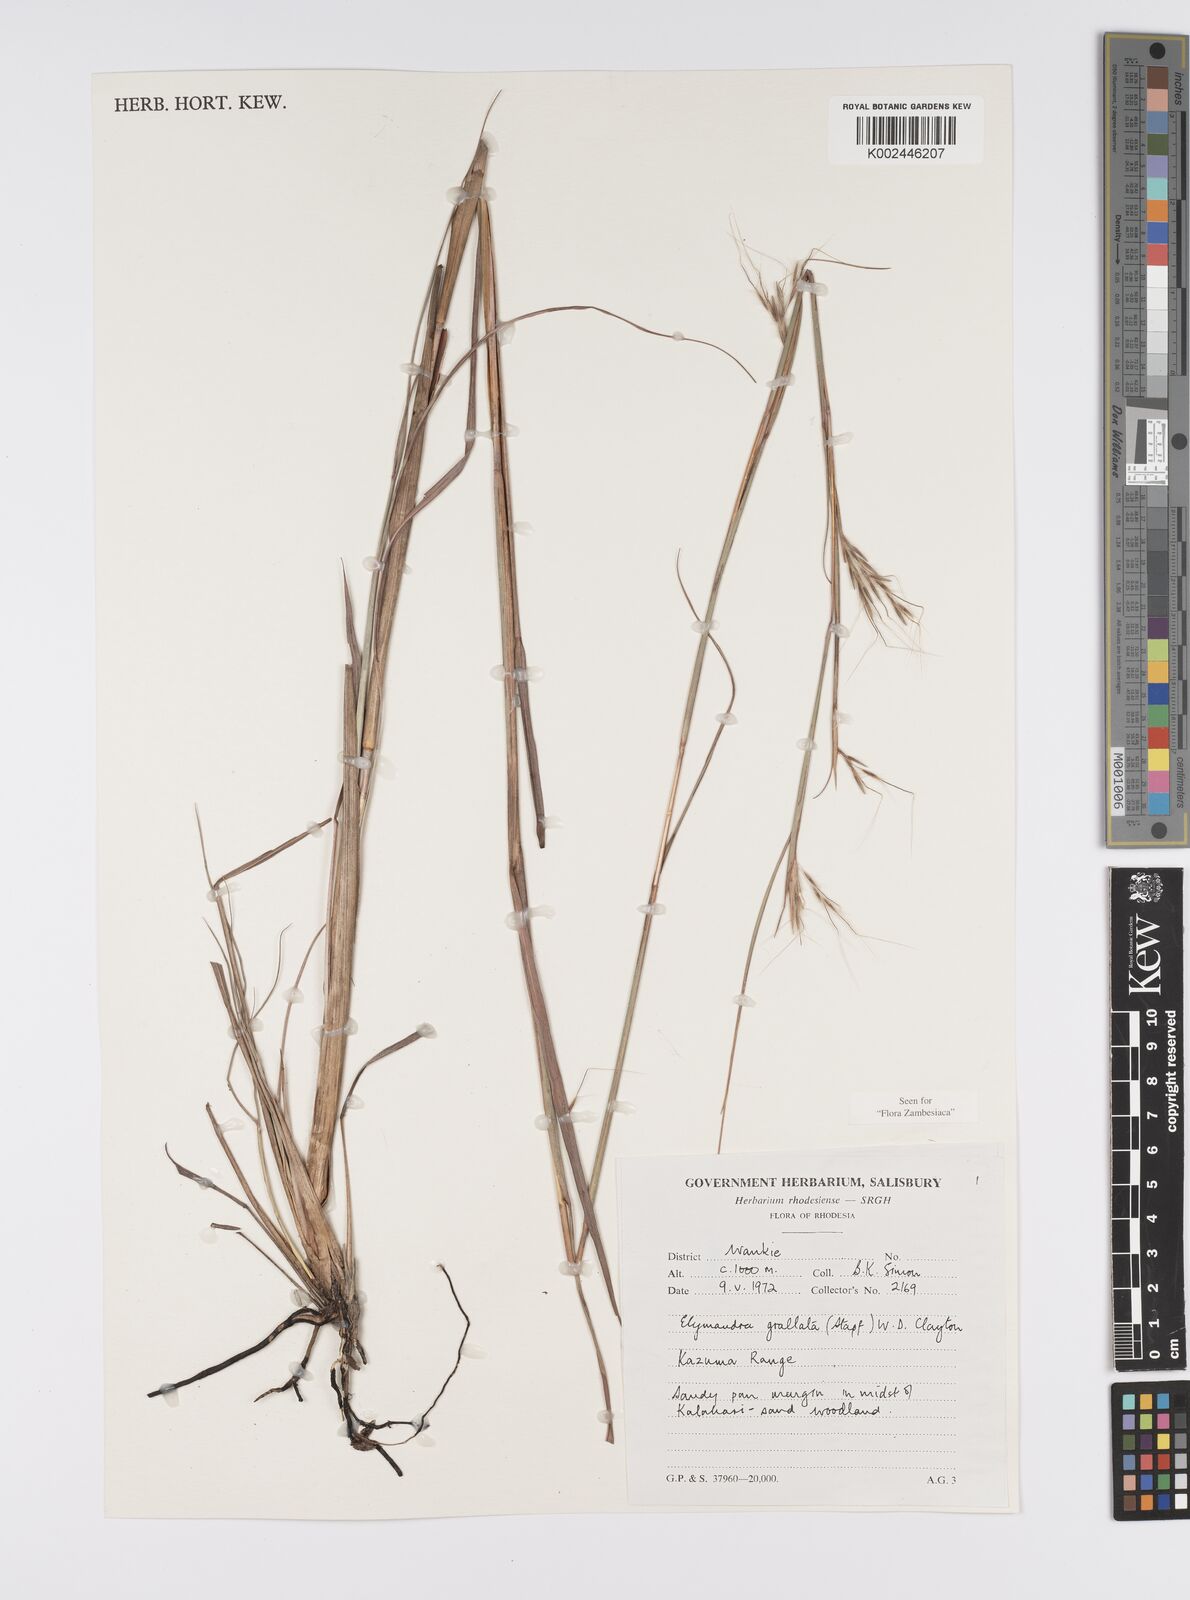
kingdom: Plantae
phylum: Tracheophyta
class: Liliopsida
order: Poales
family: Poaceae
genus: Elymandra
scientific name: Elymandra grallata
